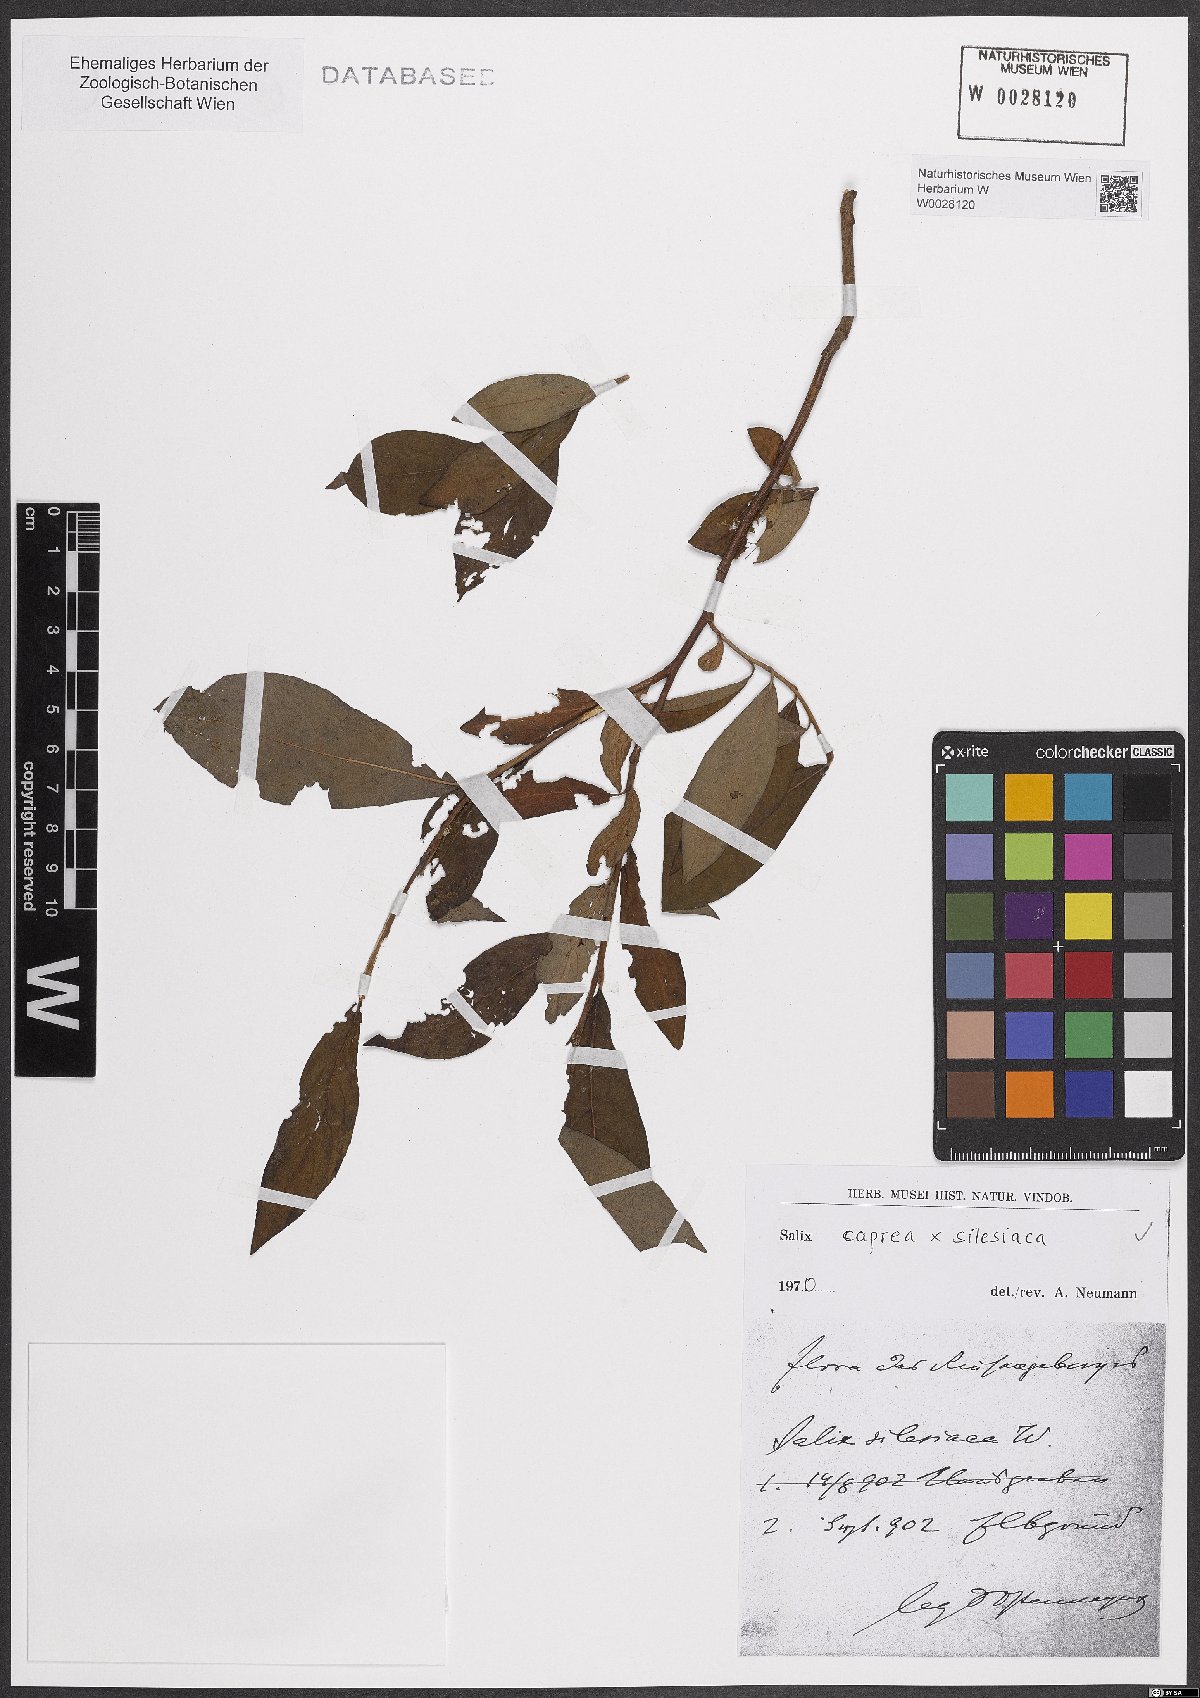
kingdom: Plantae
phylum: Tracheophyta
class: Magnoliopsida
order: Malpighiales
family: Salicaceae
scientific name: Salicaceae
